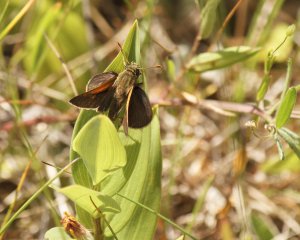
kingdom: Animalia
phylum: Arthropoda
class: Insecta
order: Lepidoptera
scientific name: Lepidoptera
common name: Butterflies
